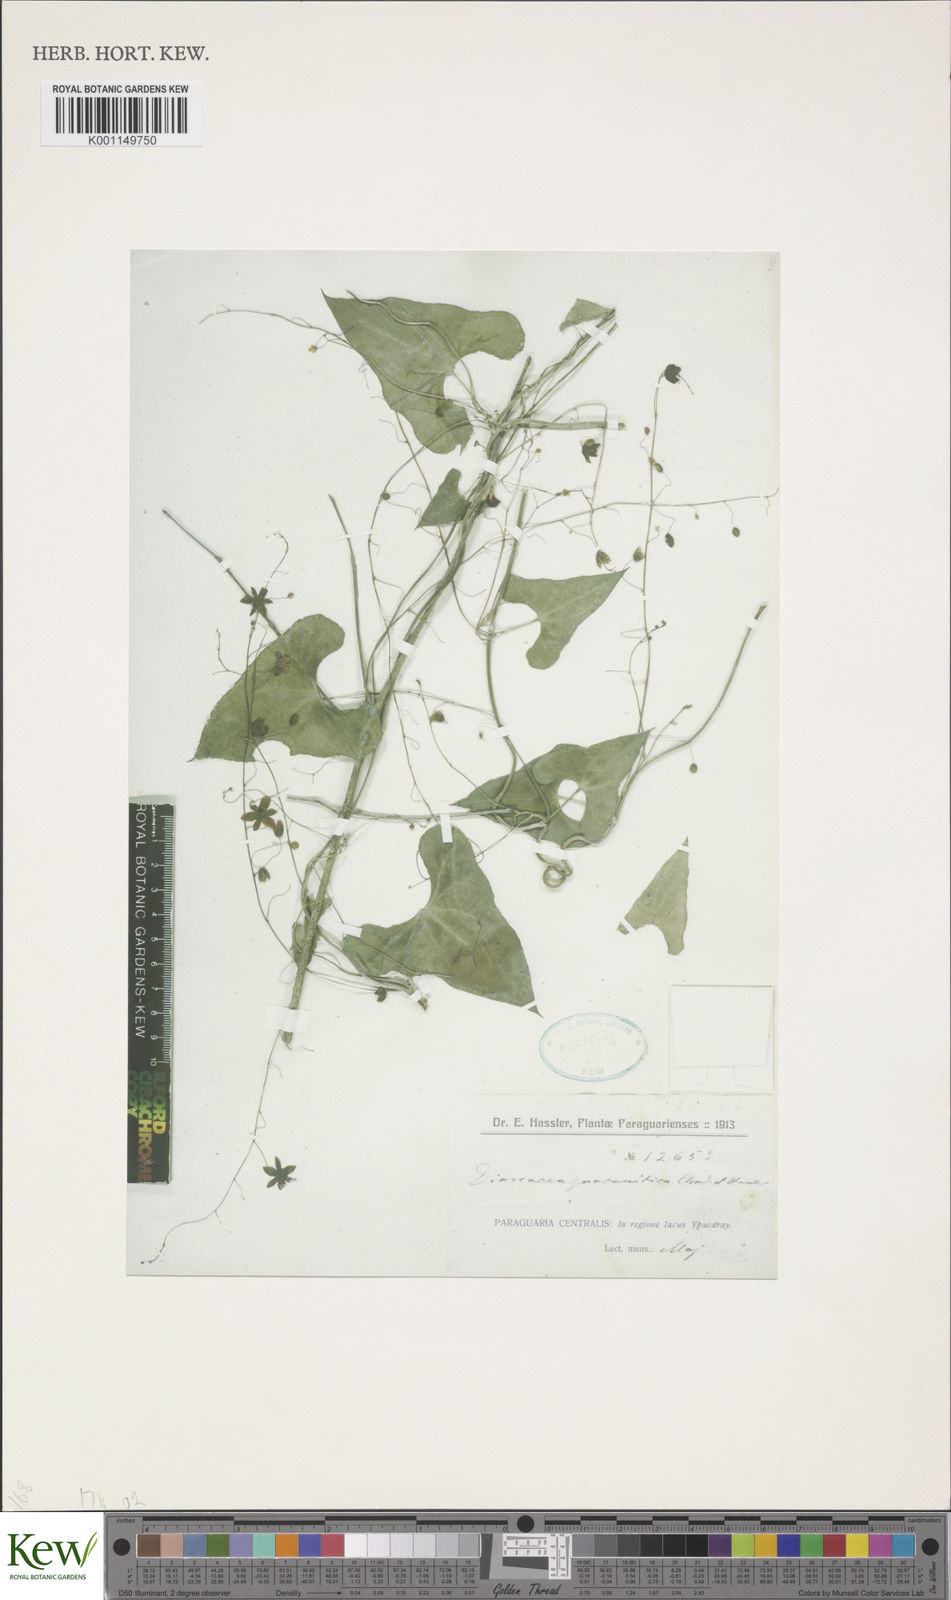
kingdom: Plantae
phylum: Tracheophyta
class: Liliopsida
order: Dioscoreales
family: Dioscoreaceae
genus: Dioscorea
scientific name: Dioscorea subhastata
